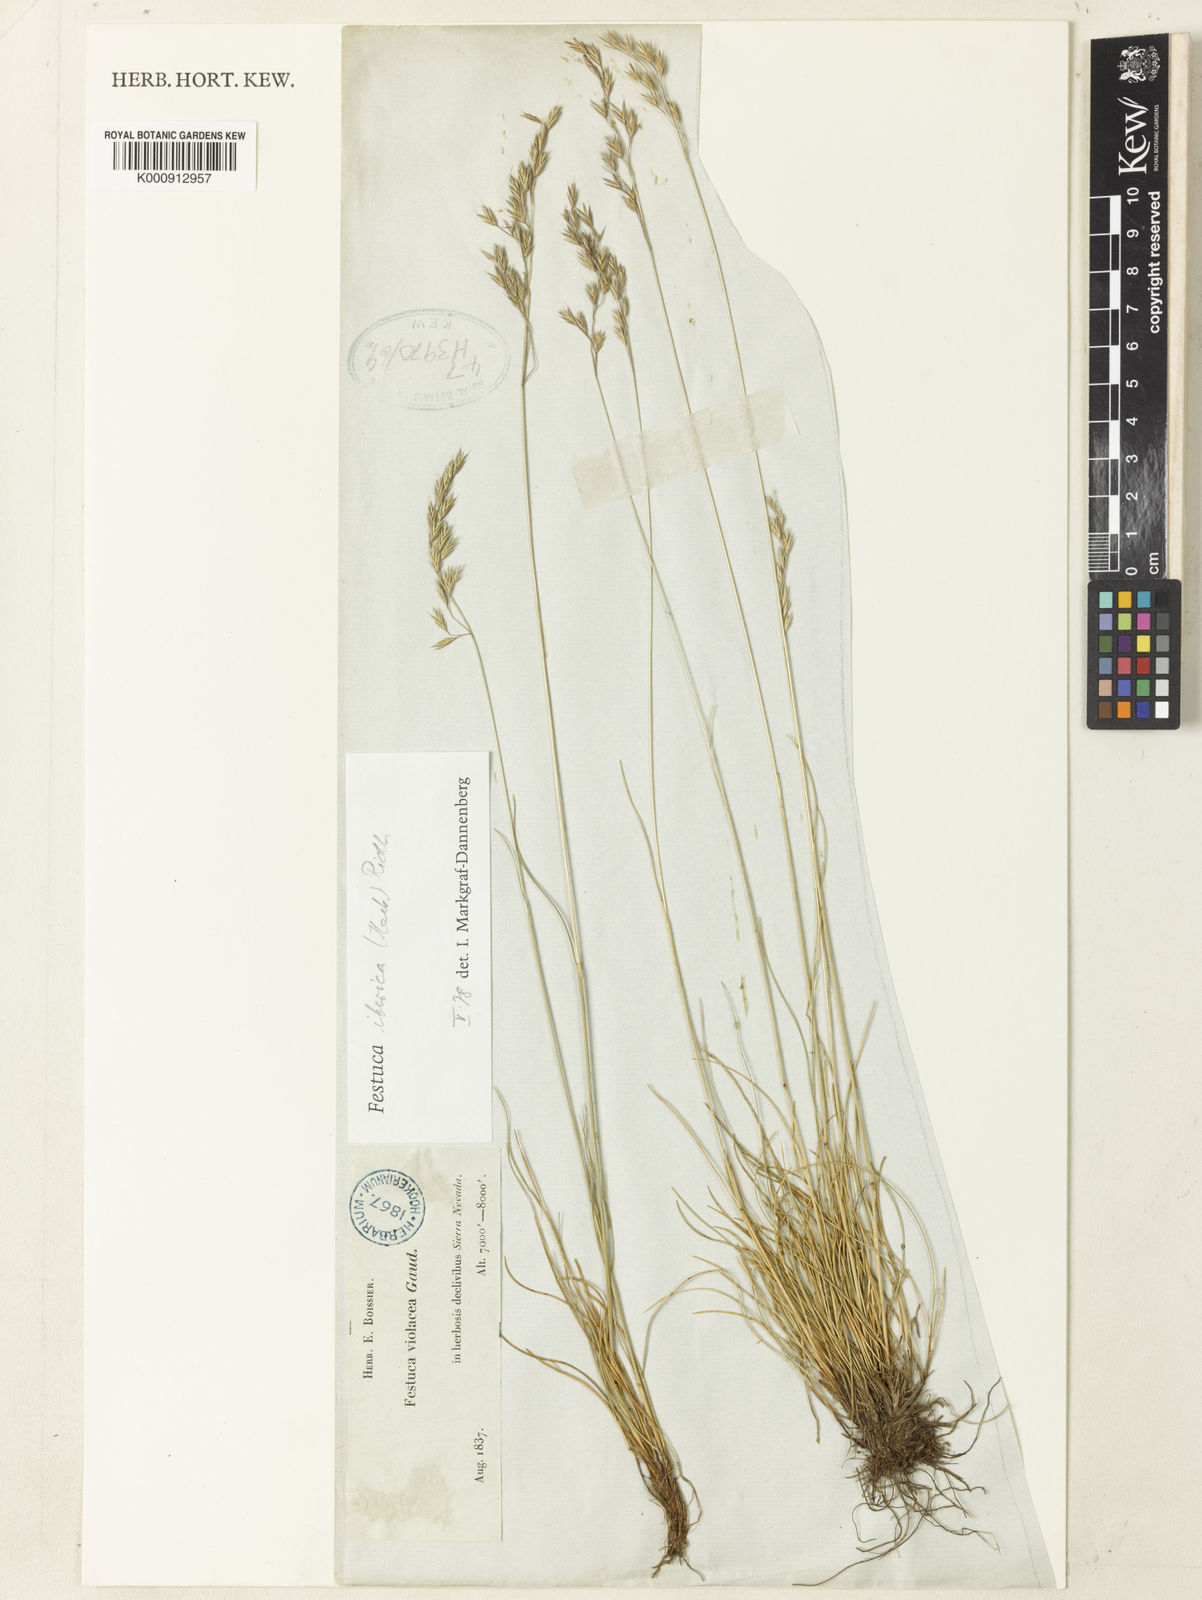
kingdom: Plantae
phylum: Tracheophyta
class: Liliopsida
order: Poales
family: Poaceae
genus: Festuca
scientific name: Festuca iberica
